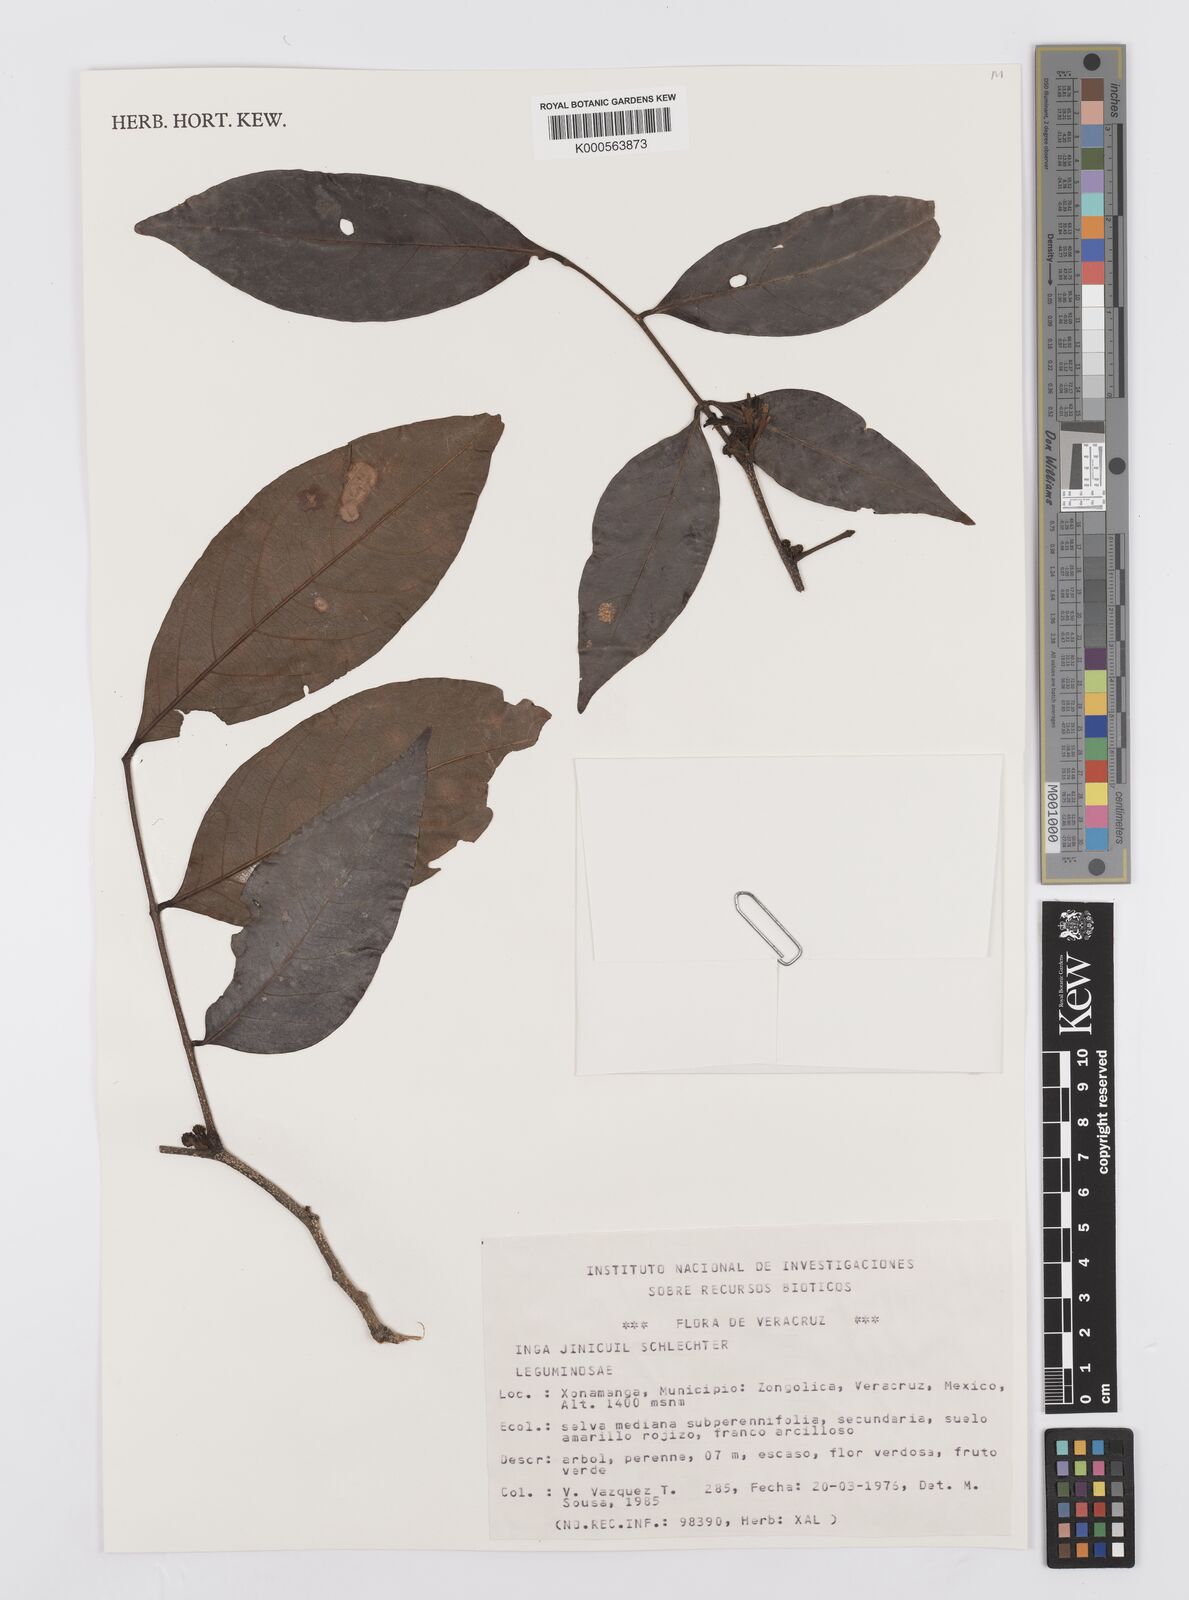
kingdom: Plantae
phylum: Tracheophyta
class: Magnoliopsida
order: Fabales
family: Fabaceae
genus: Inga
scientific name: Inga inicuil
